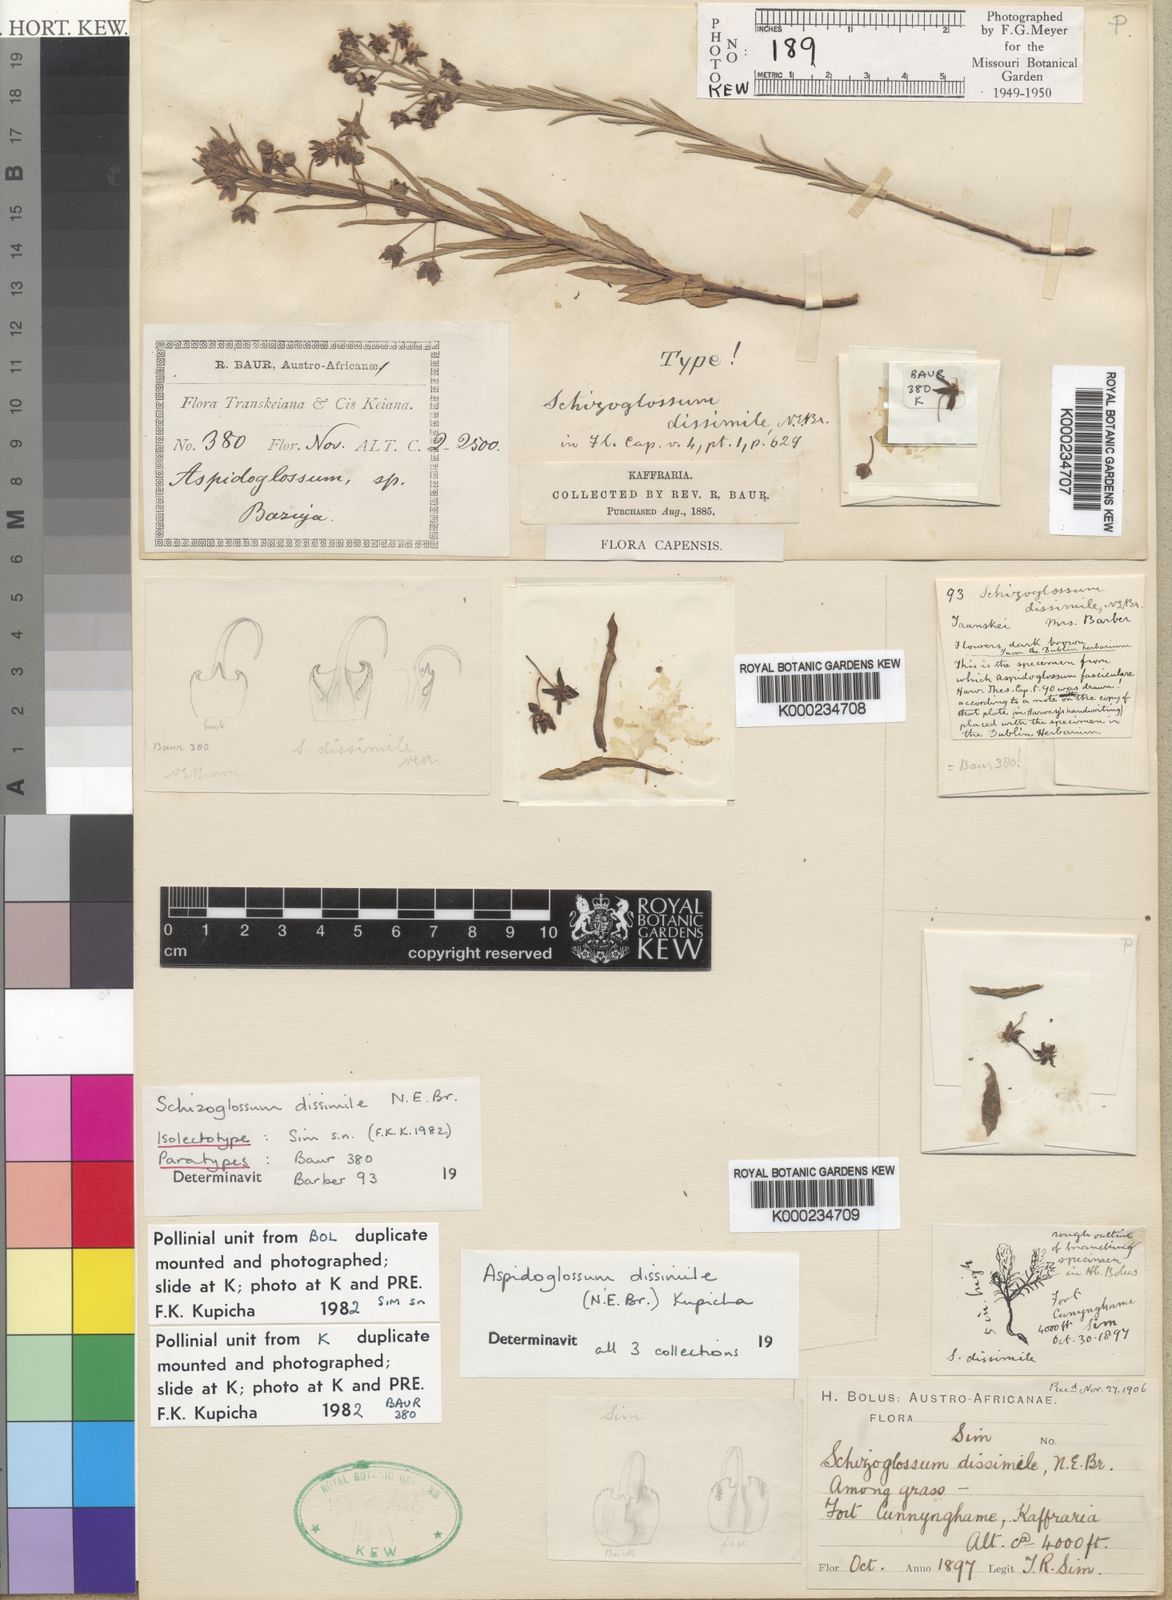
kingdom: Plantae
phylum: Tracheophyta
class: Magnoliopsida
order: Gentianales
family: Apocynaceae
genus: Aspidoglossum
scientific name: Aspidoglossum dissimile
